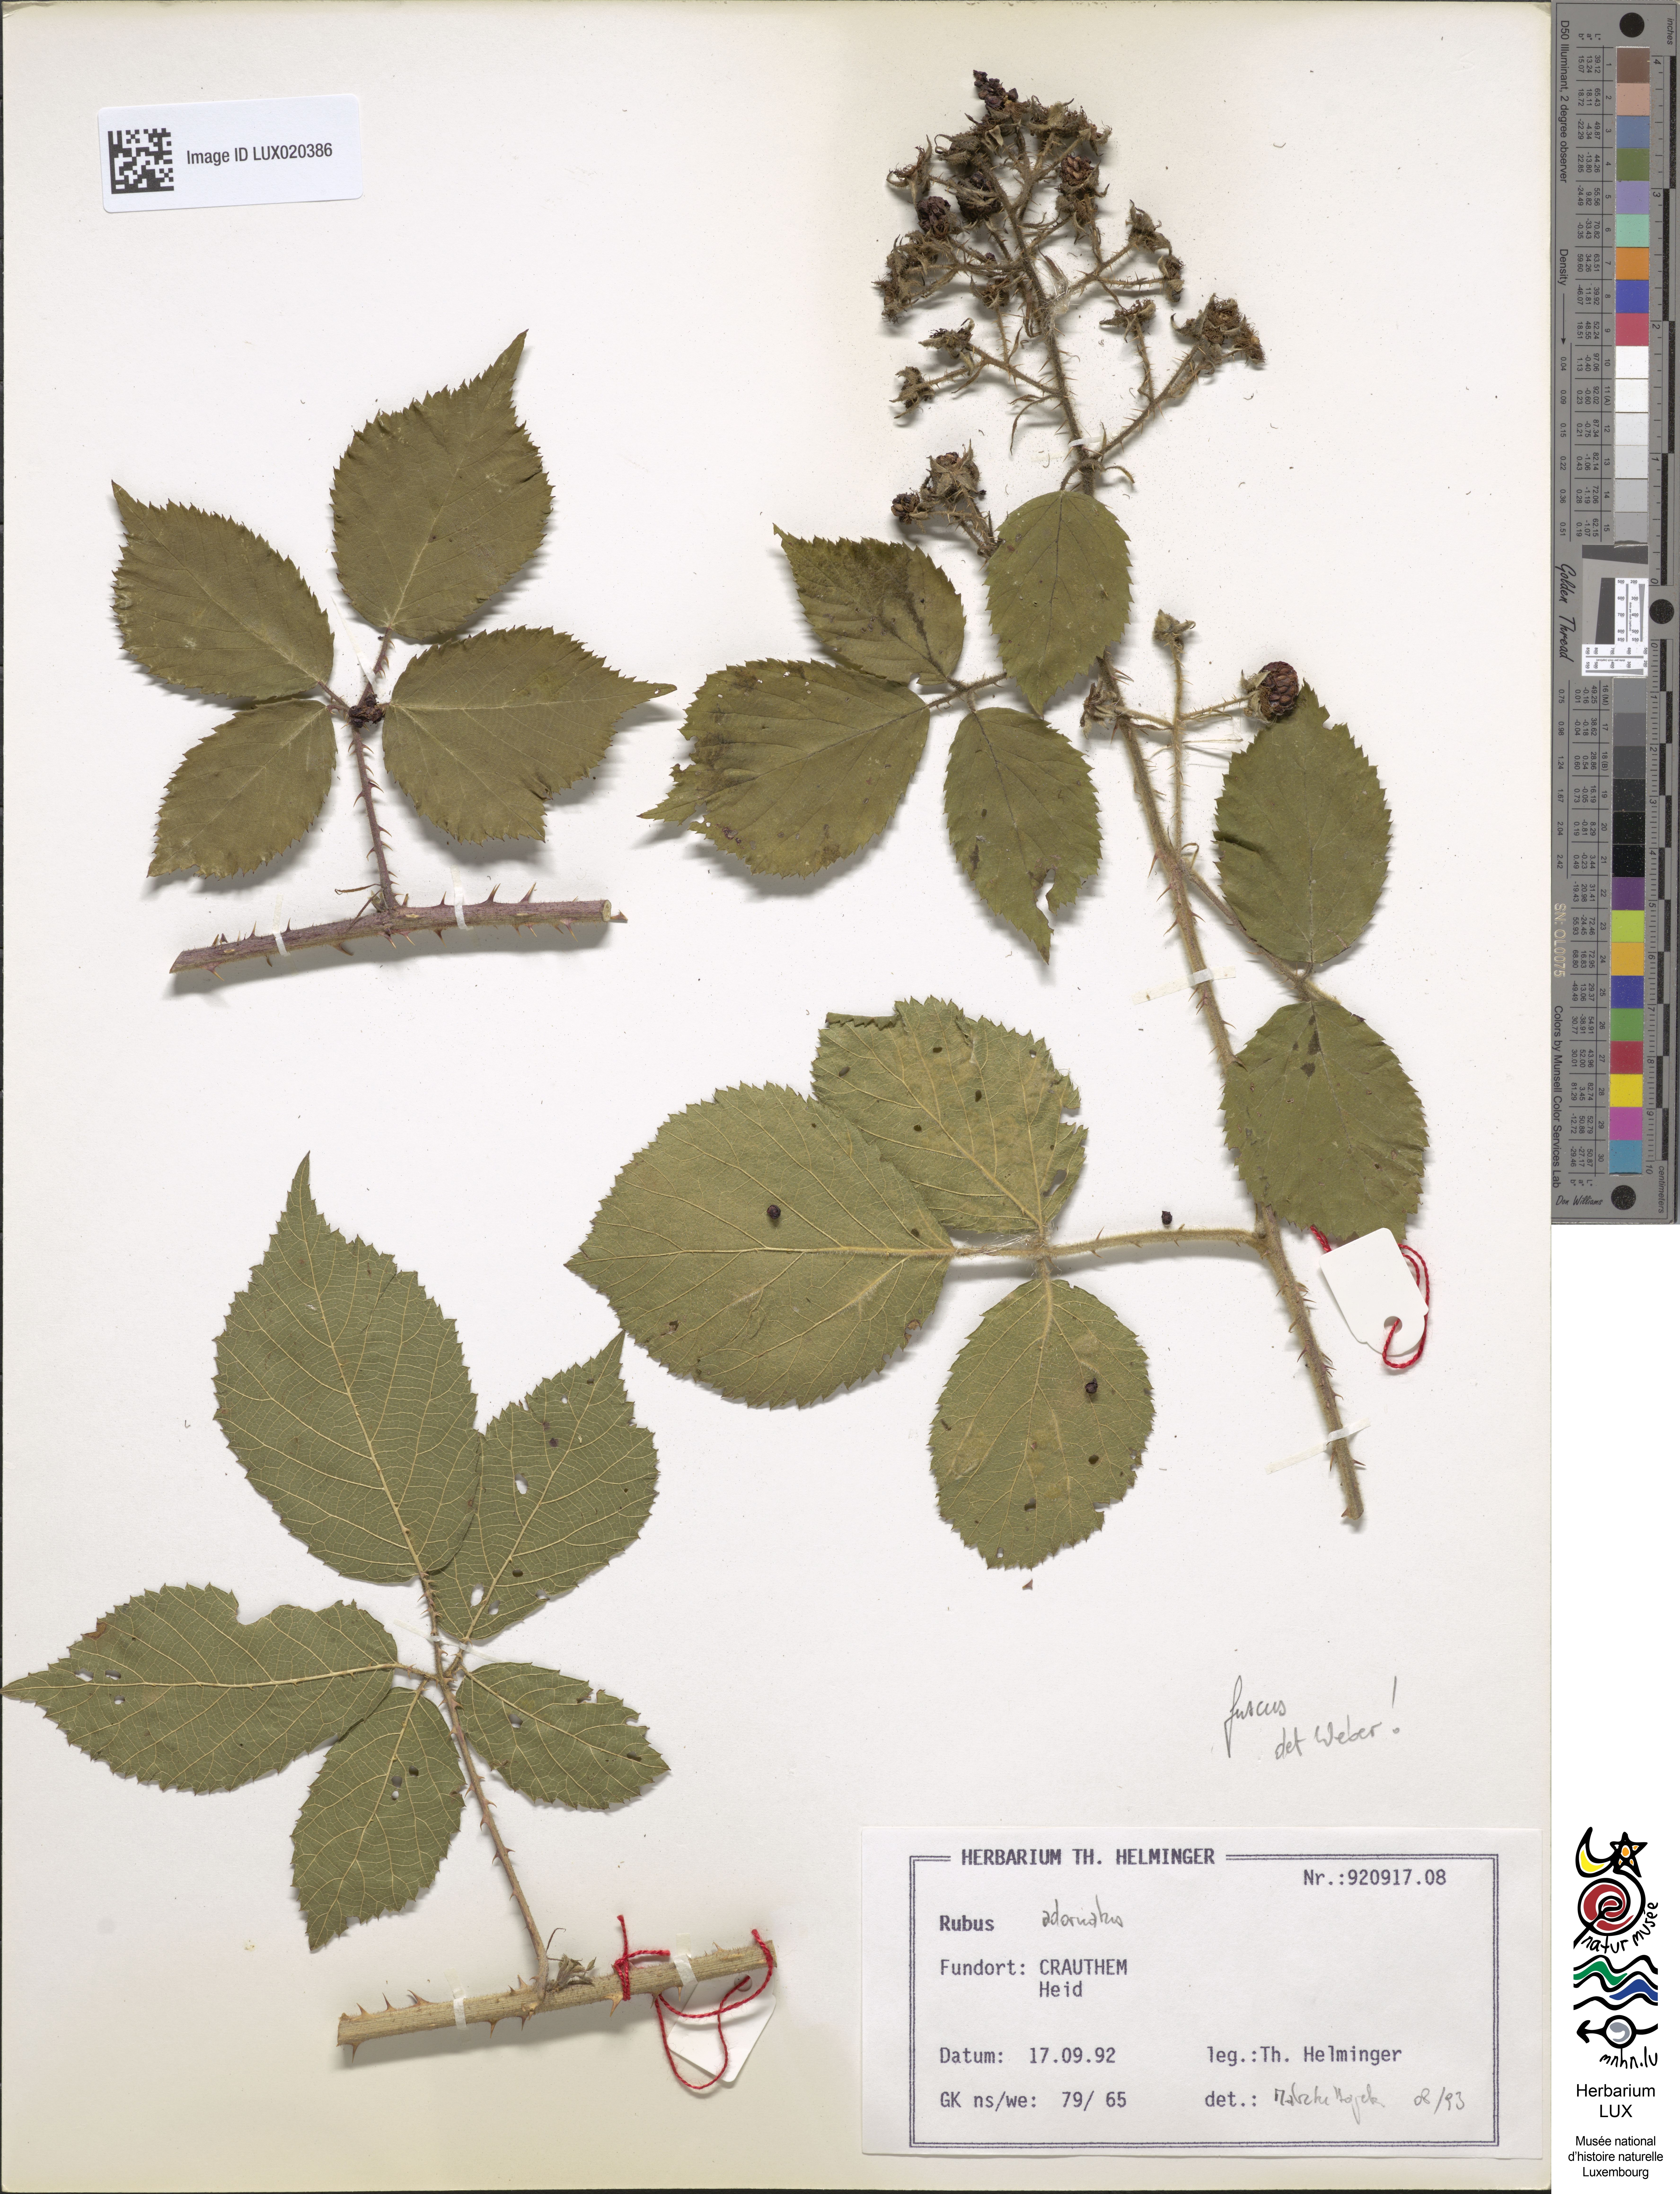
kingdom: Plantae
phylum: Tracheophyta
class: Magnoliopsida
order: Rosales
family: Rosaceae
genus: Rubus
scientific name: Rubus
